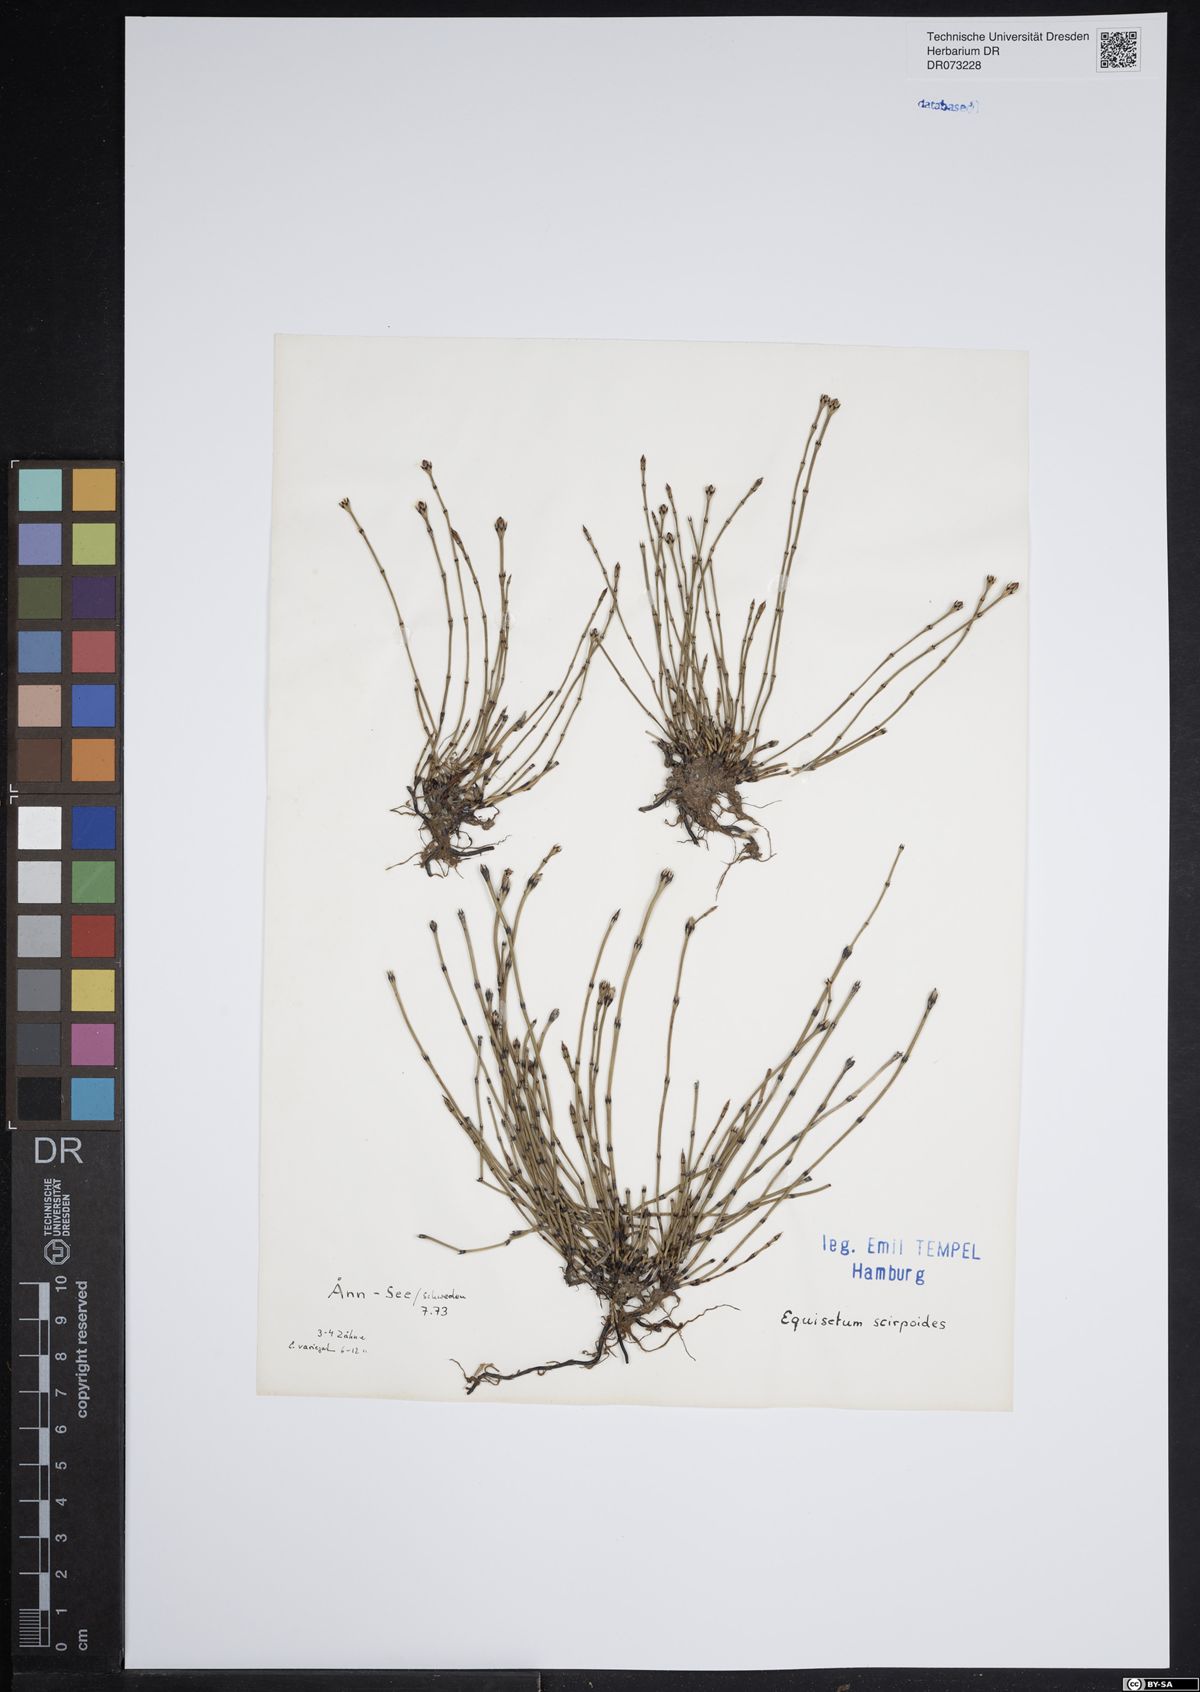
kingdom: Plantae
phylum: Tracheophyta
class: Polypodiopsida
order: Equisetales
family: Equisetaceae
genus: Equisetum
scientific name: Equisetum scirpoides
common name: Delicate horsetail
